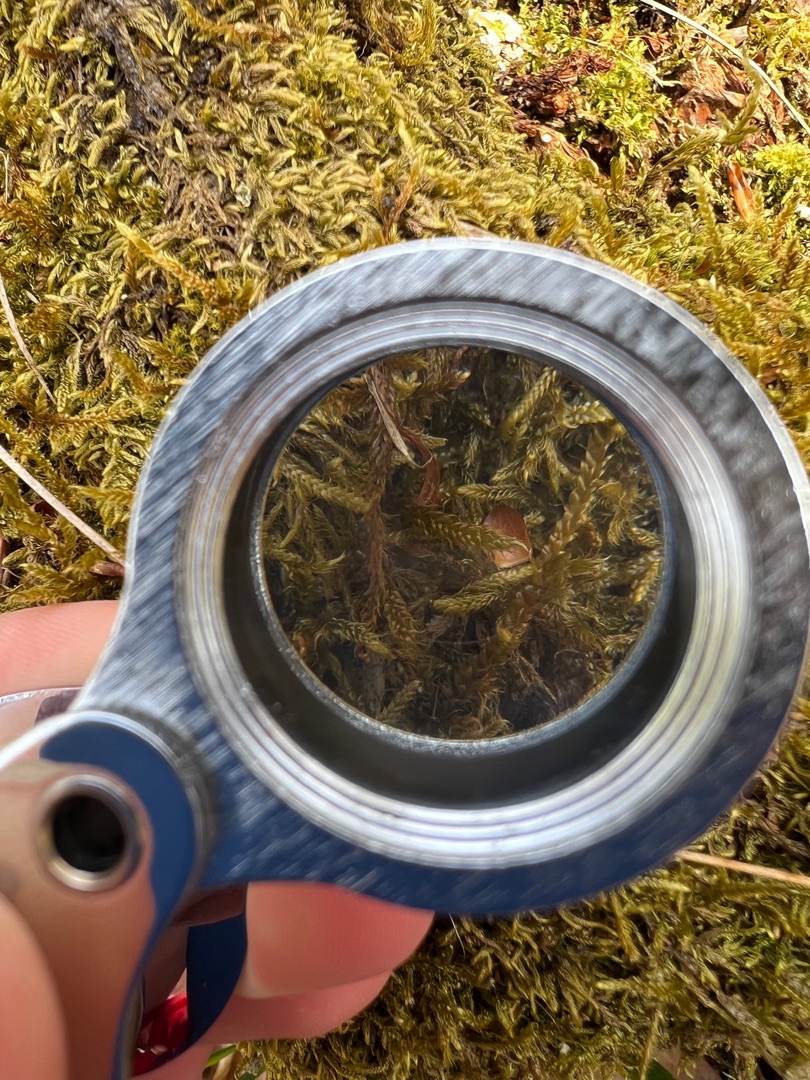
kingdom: Plantae
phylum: Bryophyta
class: Bryopsida
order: Hypnales
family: Hypnaceae
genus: Hypnum
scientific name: Hypnum cupressiforme
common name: Almindelig cypresmos
